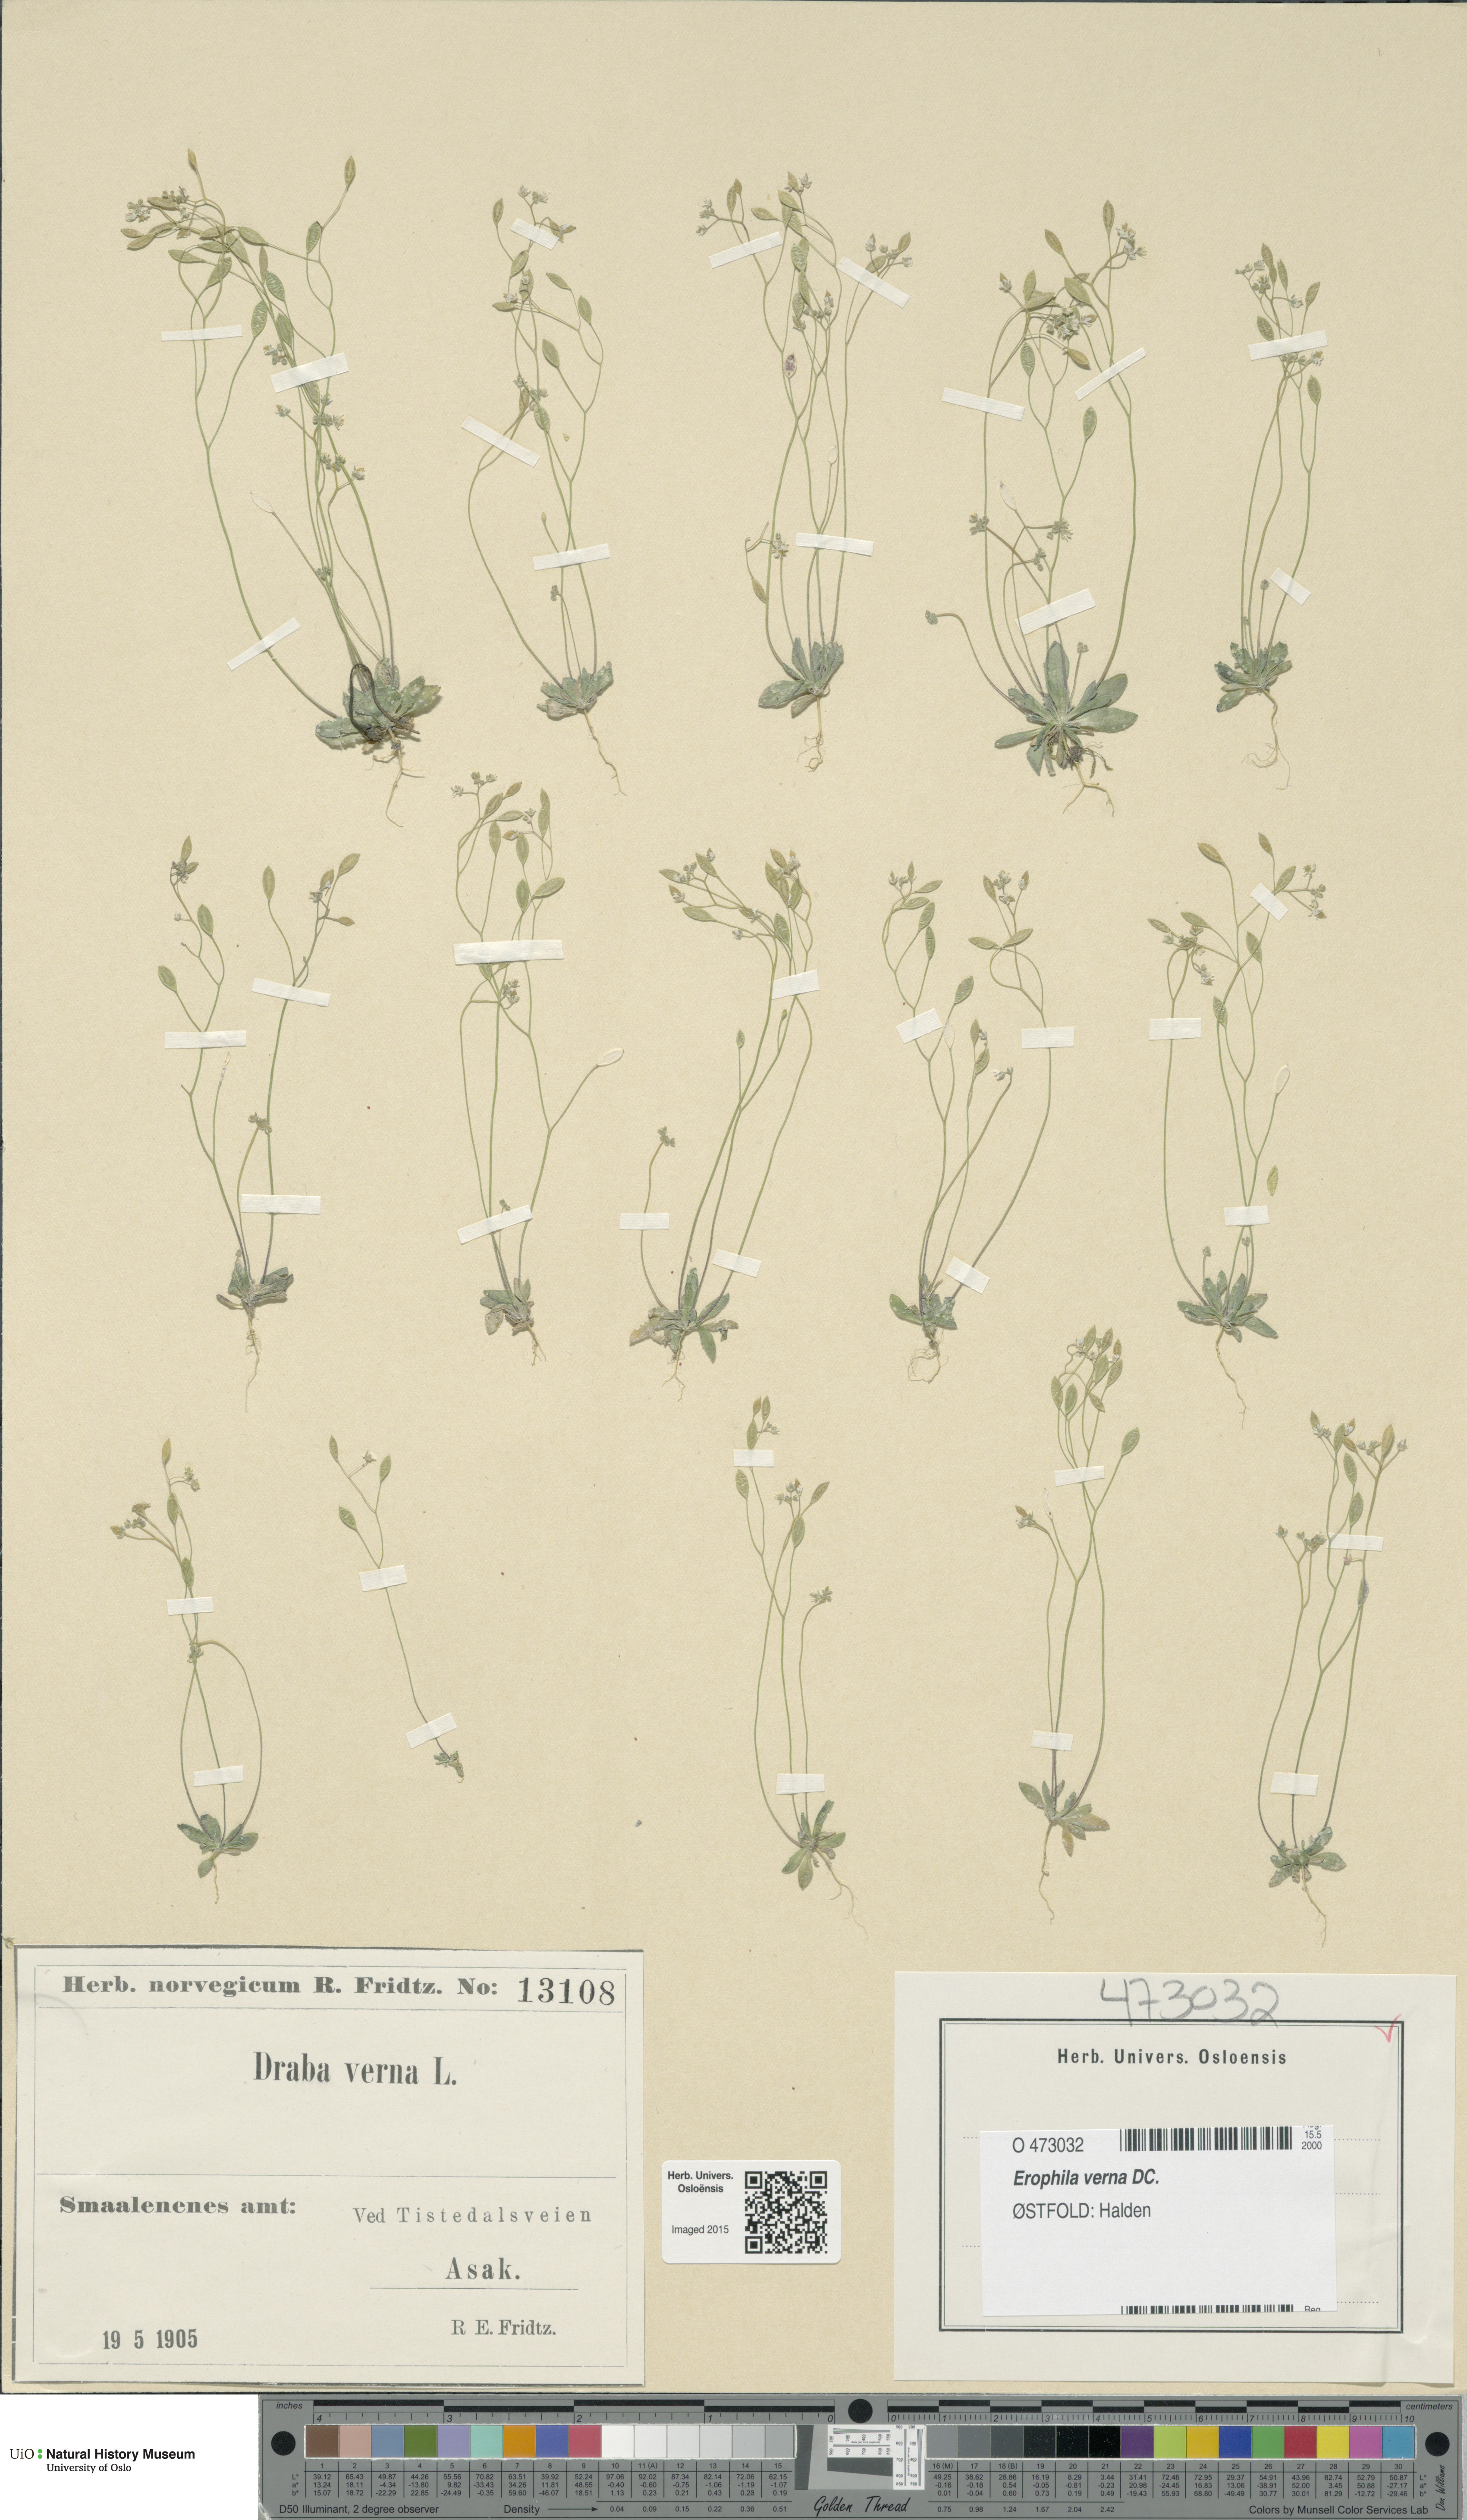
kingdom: Plantae
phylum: Tracheophyta
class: Magnoliopsida
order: Brassicales
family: Brassicaceae
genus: Draba
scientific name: Draba verna
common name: Spring draba
